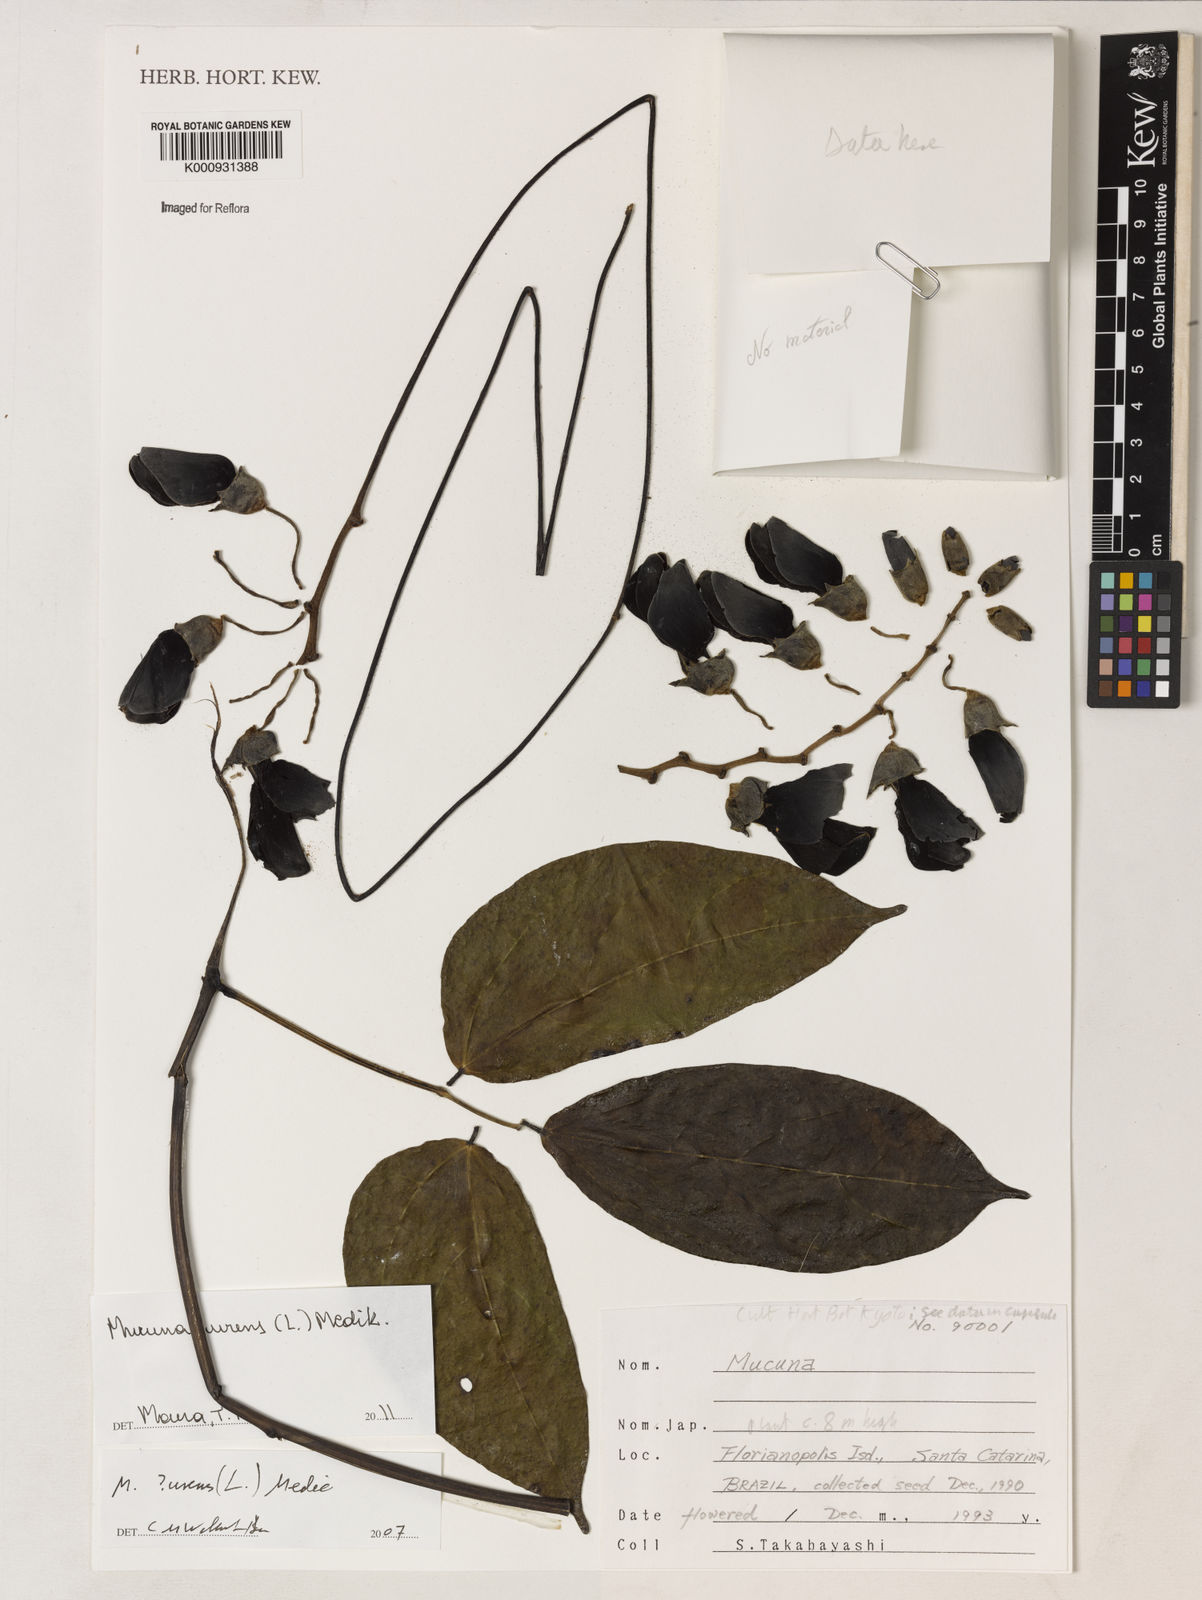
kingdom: Plantae
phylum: Tracheophyta
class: Magnoliopsida
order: Fabales
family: Fabaceae
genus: Mucuna
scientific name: Mucuna urens
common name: Red hamburger bean
